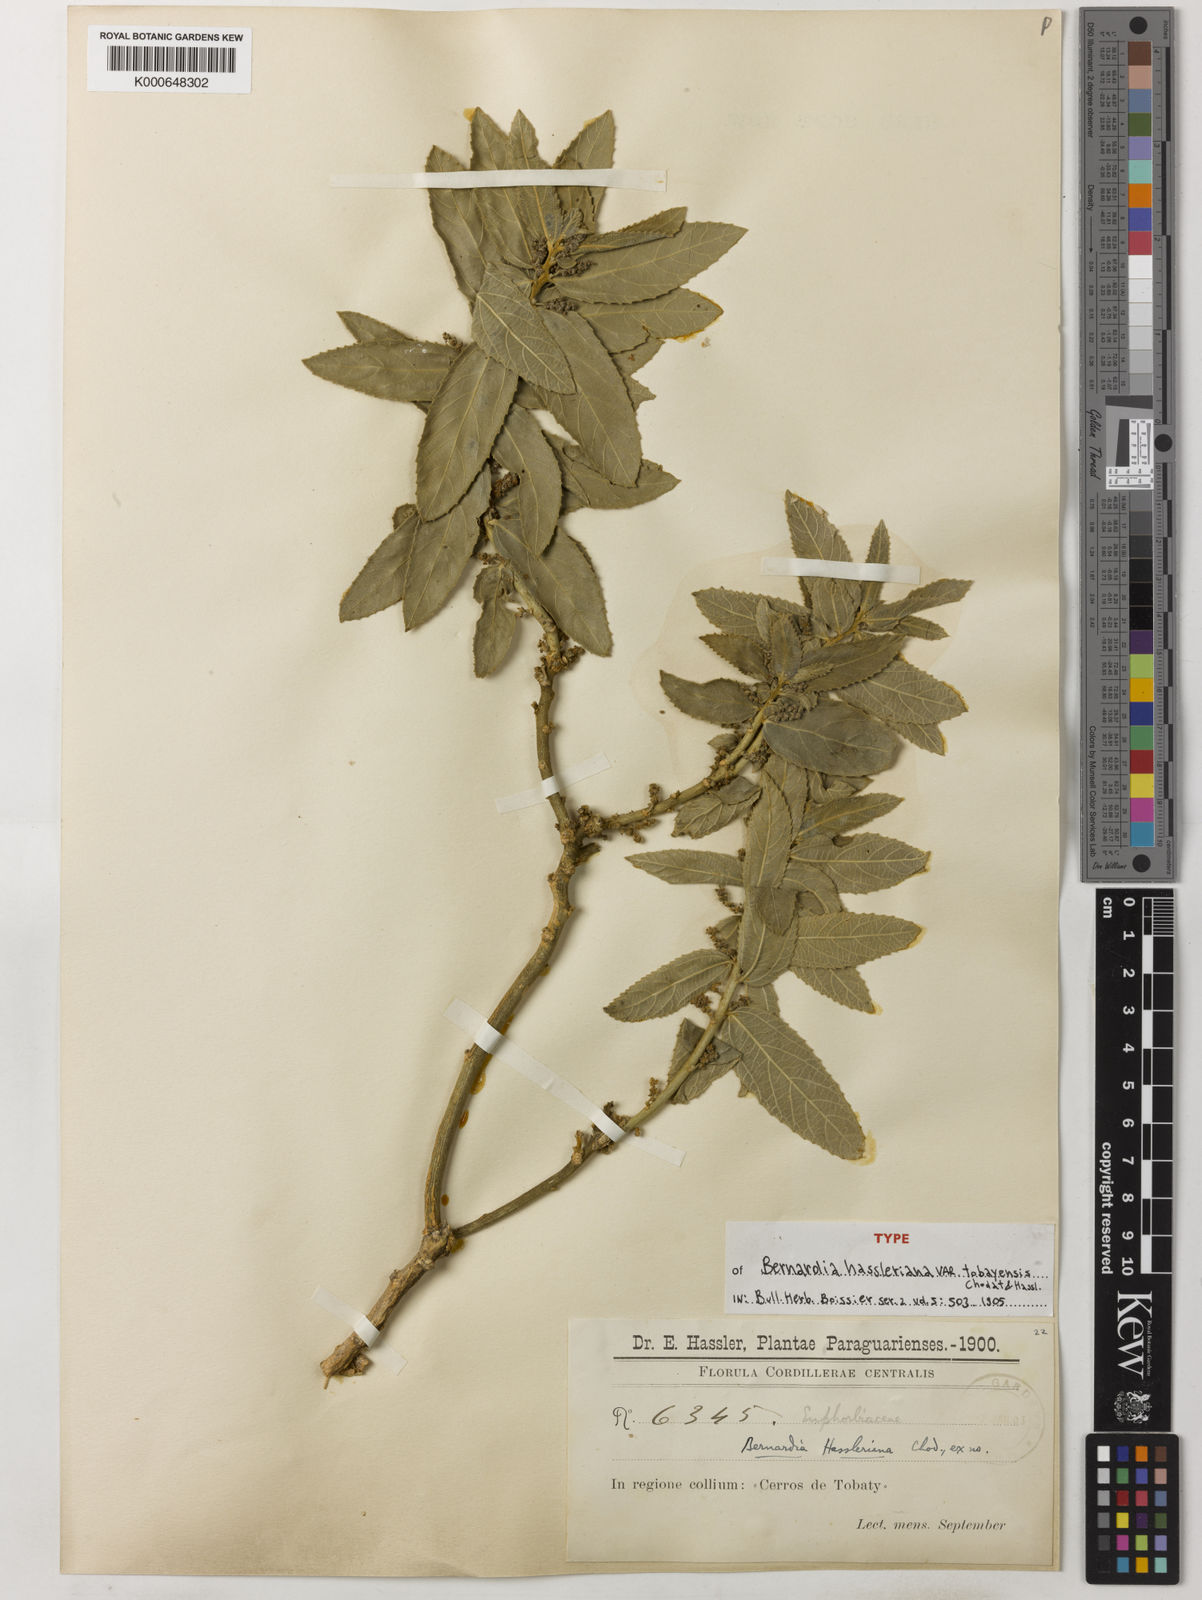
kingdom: Plantae
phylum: Tracheophyta
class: Magnoliopsida
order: Malpighiales
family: Euphorbiaceae
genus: Bernardia
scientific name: Bernardia hassleriana
